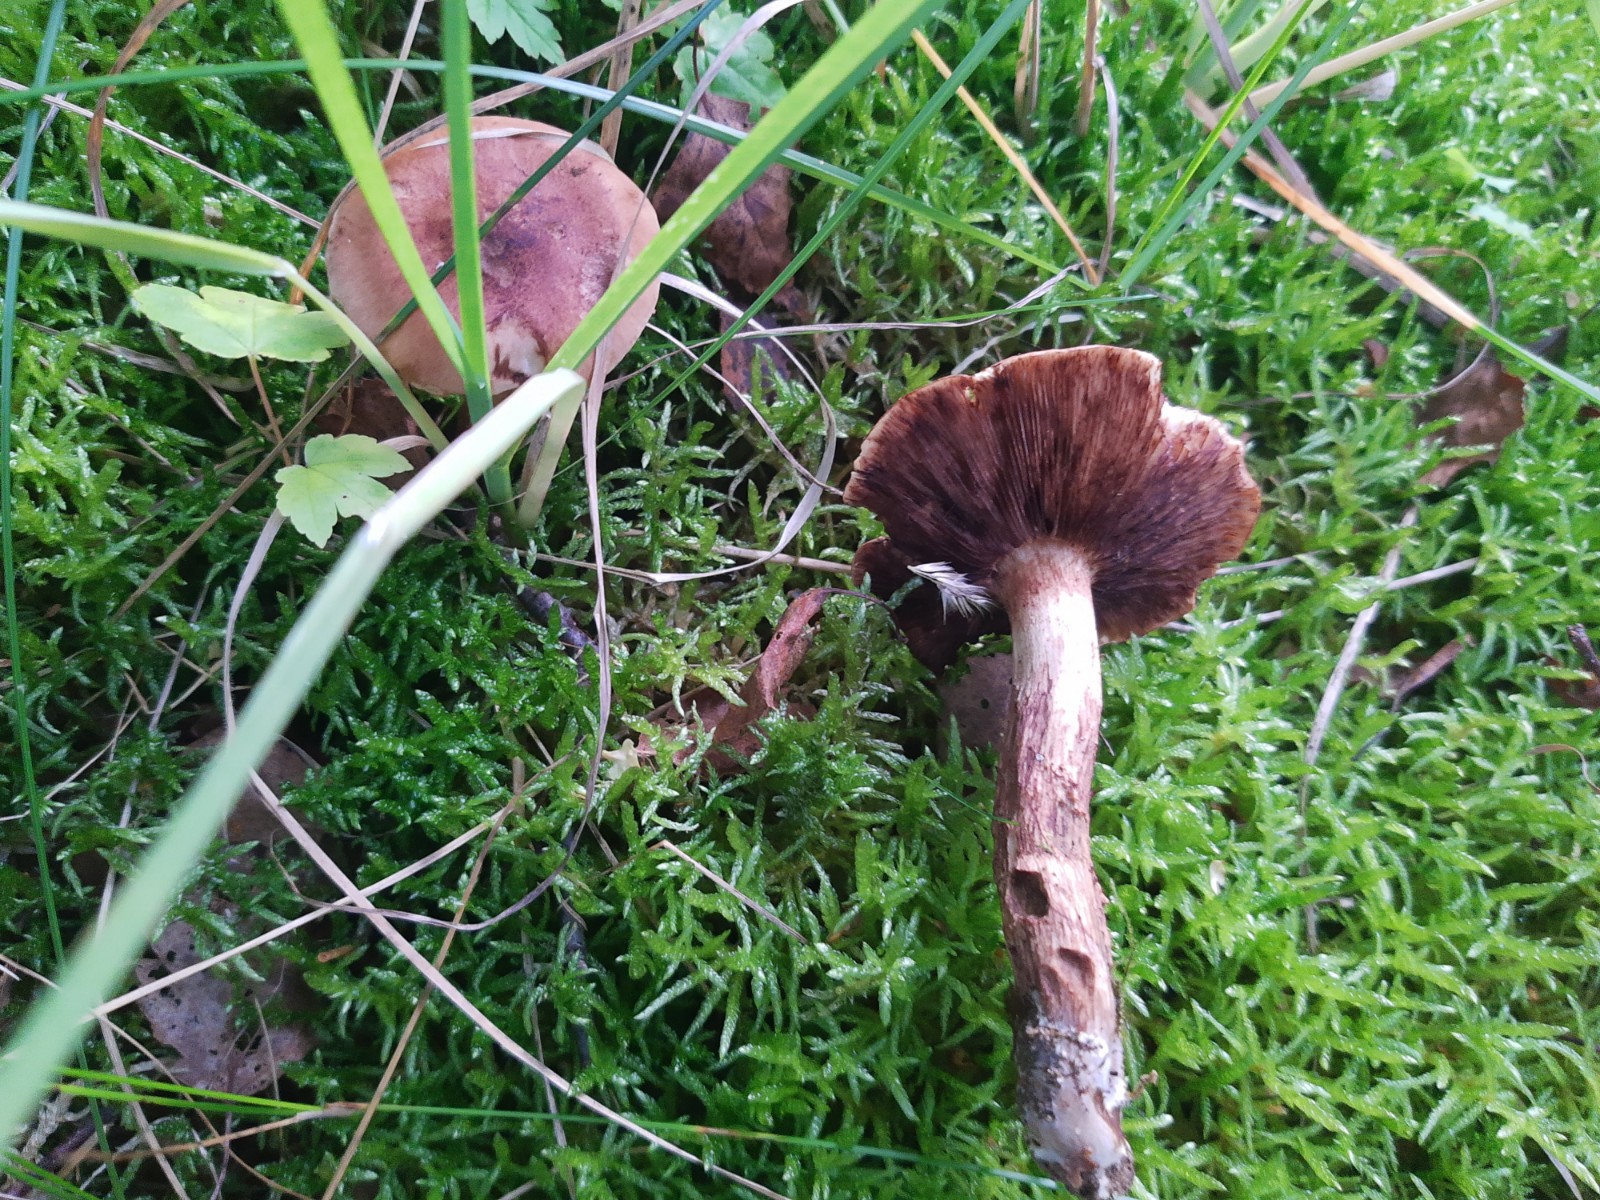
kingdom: Fungi
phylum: Basidiomycota
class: Agaricomycetes
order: Agaricales
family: Tricholomataceae
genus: Tricholoma
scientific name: Tricholoma fulvum
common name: birke-ridderhat
